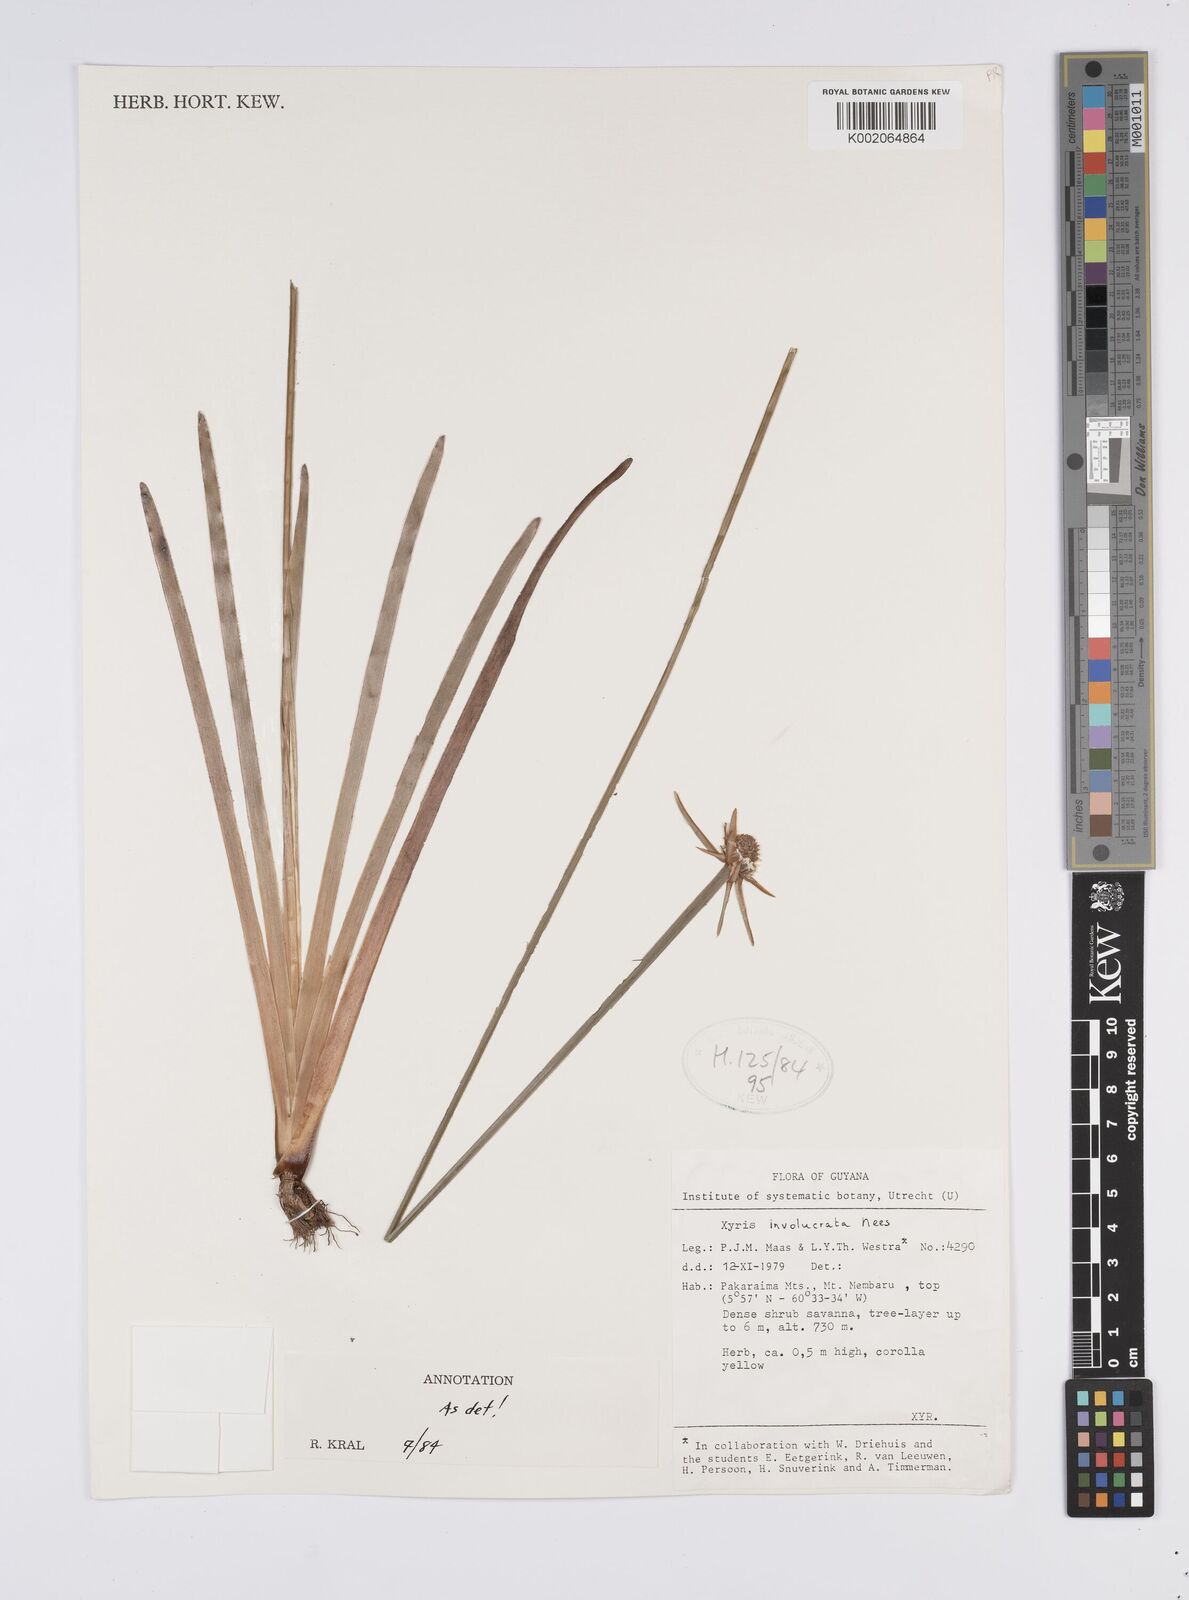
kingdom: Plantae
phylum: Tracheophyta
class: Liliopsida
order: Poales
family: Xyridaceae
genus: Xyris
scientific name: Xyris involucrata
